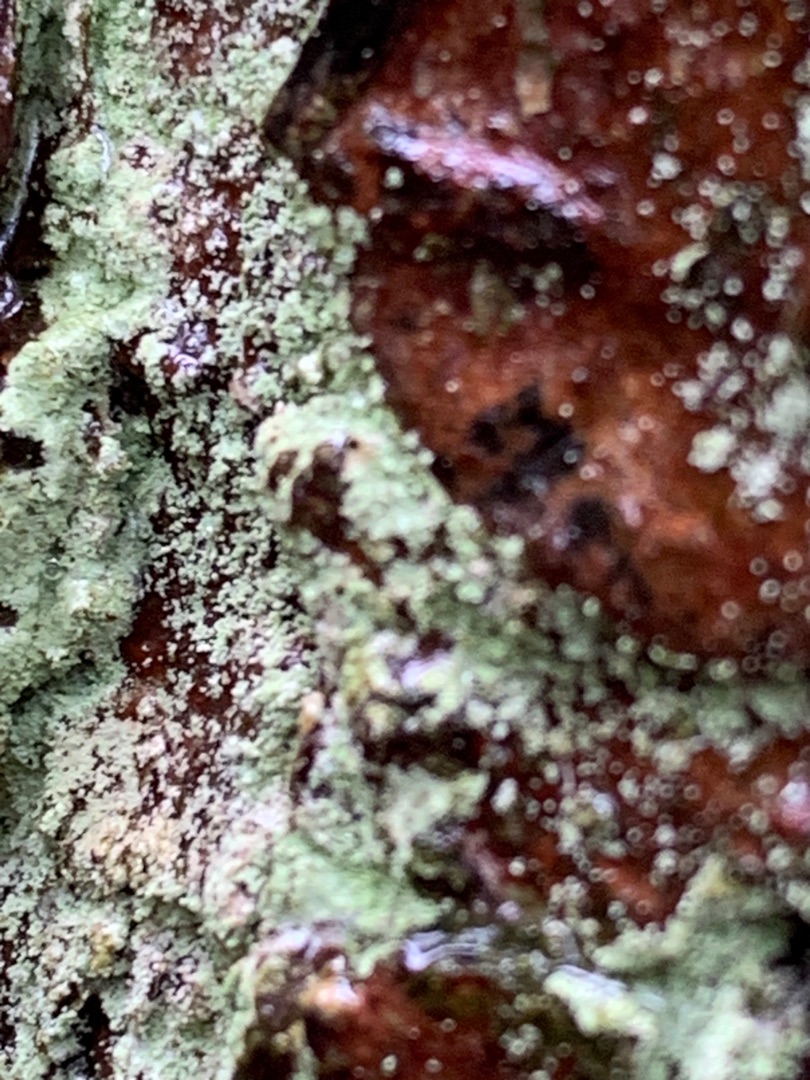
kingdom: Fungi
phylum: Ascomycota
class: Lecanoromycetes
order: Lecanorales
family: Stereocaulaceae
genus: Lepraria
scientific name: Lepraria
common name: Støvlav
